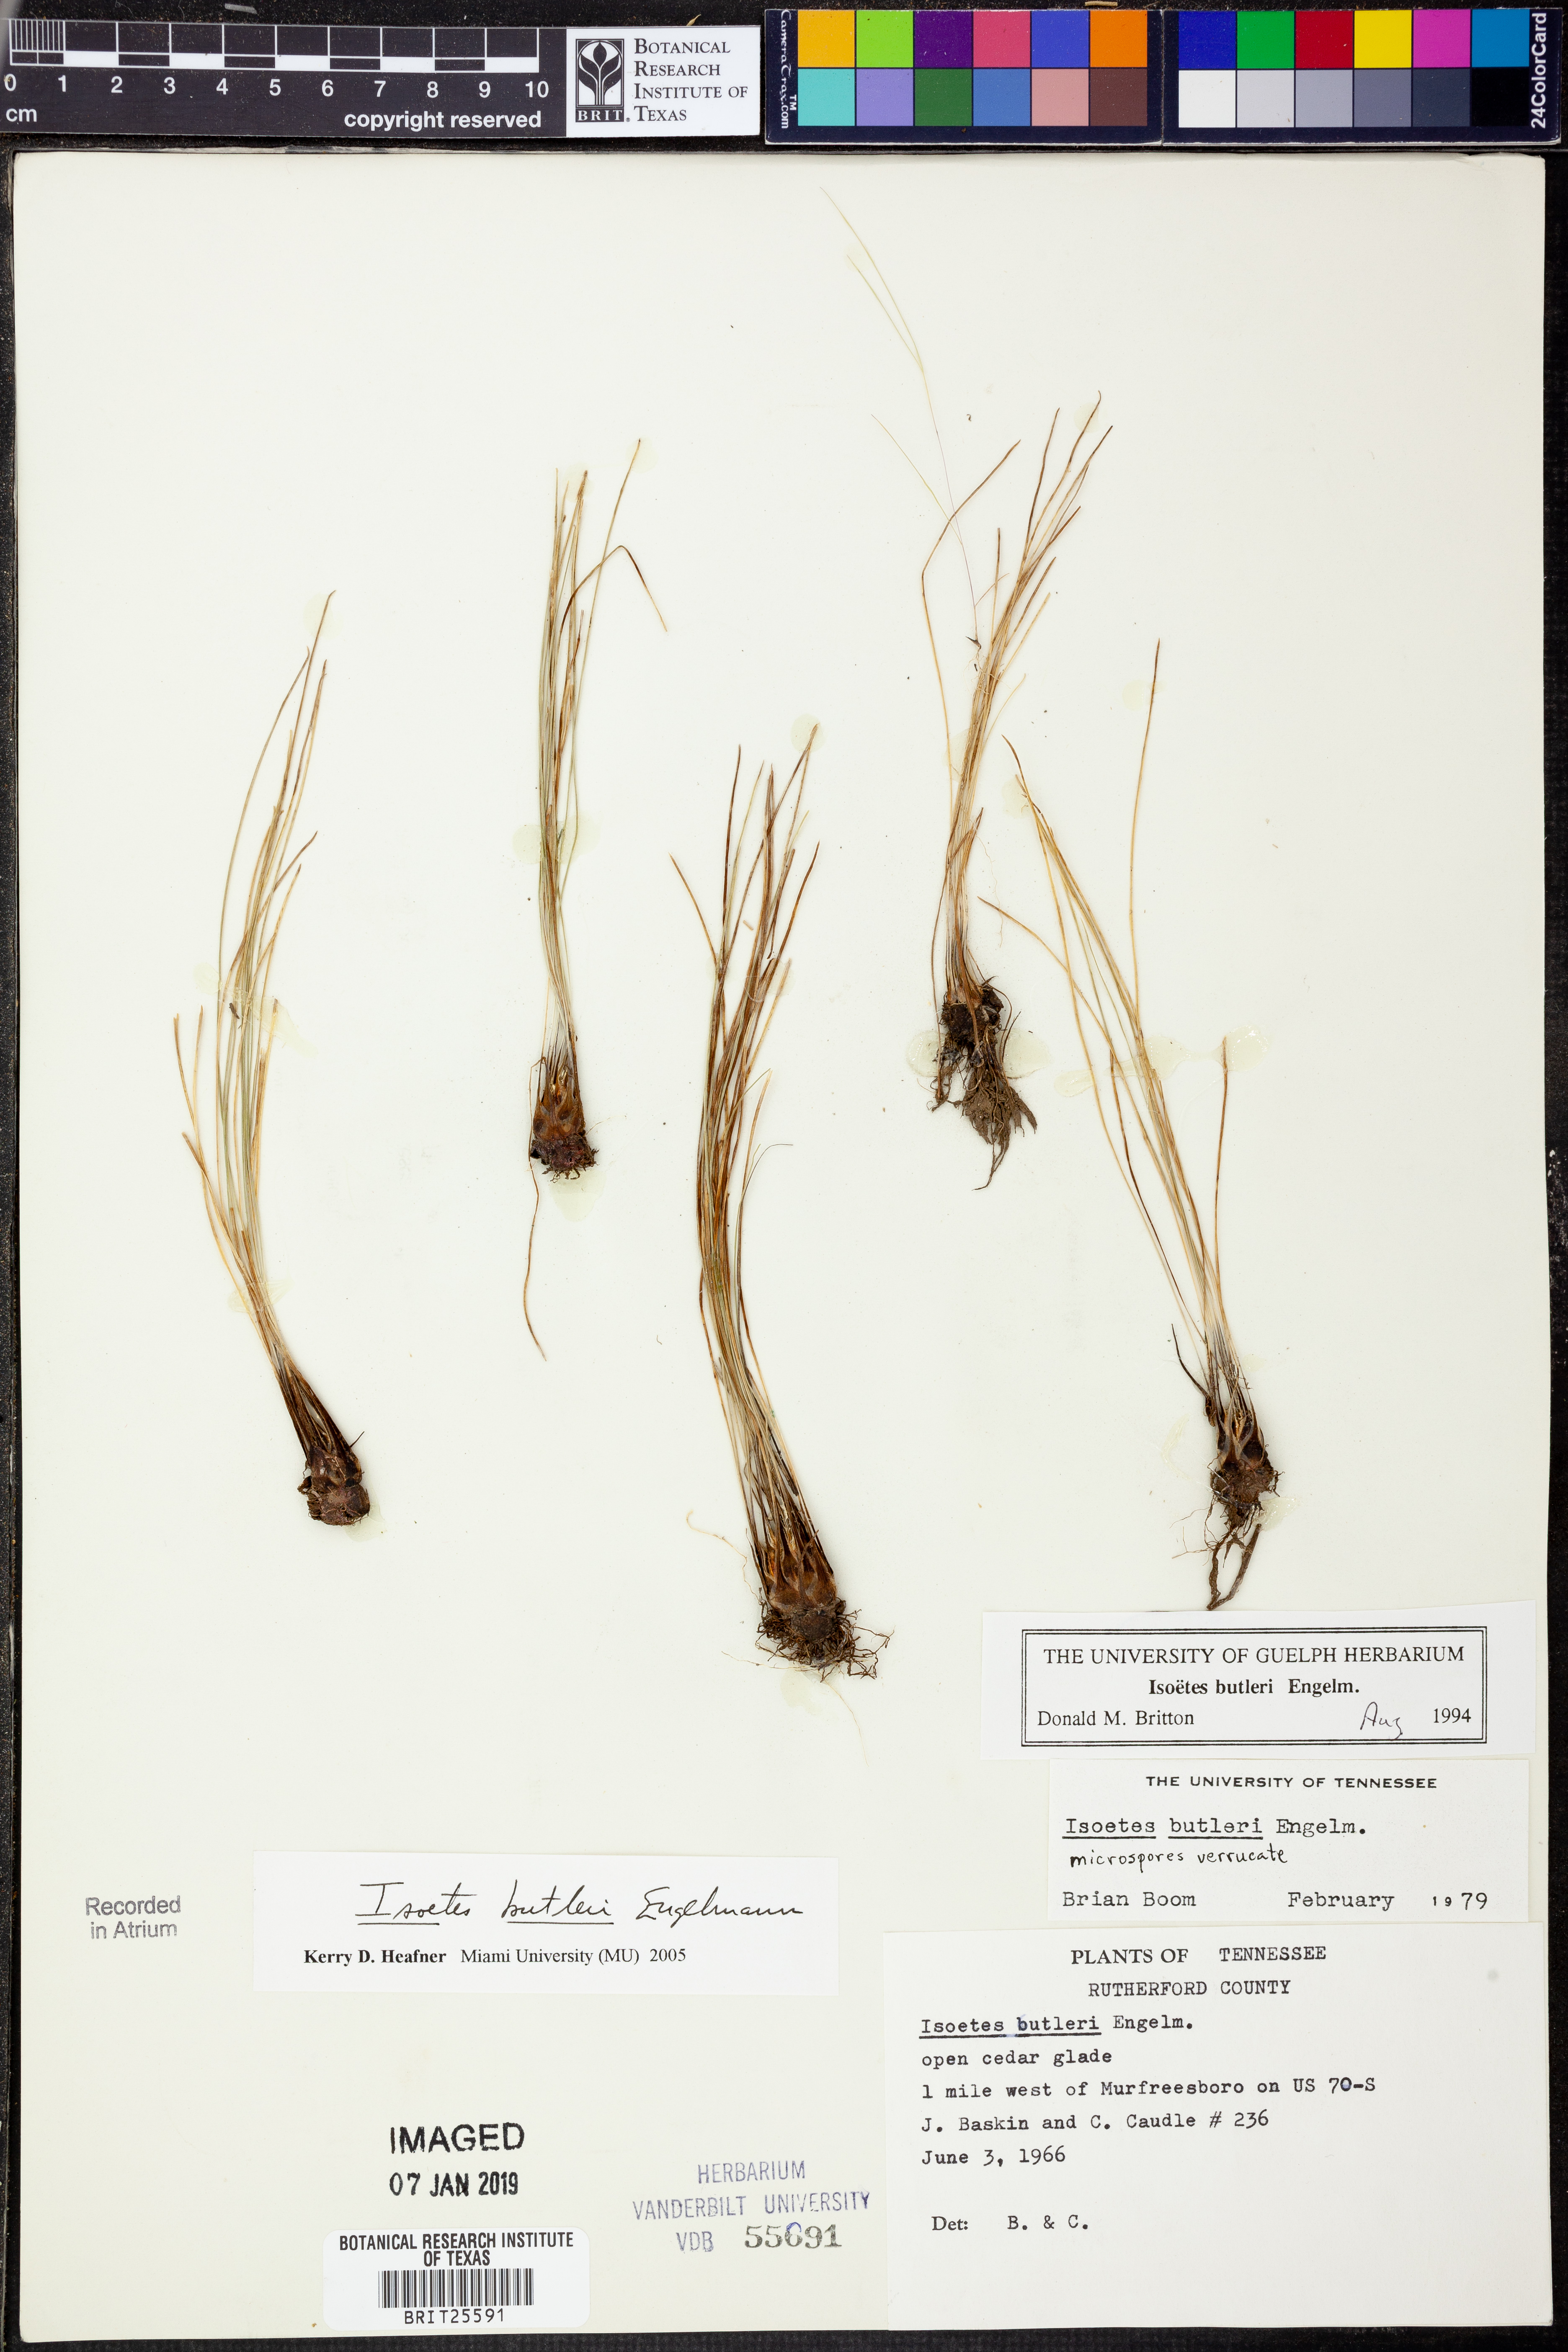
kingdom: Plantae
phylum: Tracheophyta
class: Lycopodiopsida
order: Isoetales
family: Isoetaceae
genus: Isoetes
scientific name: Isoetes butleri
